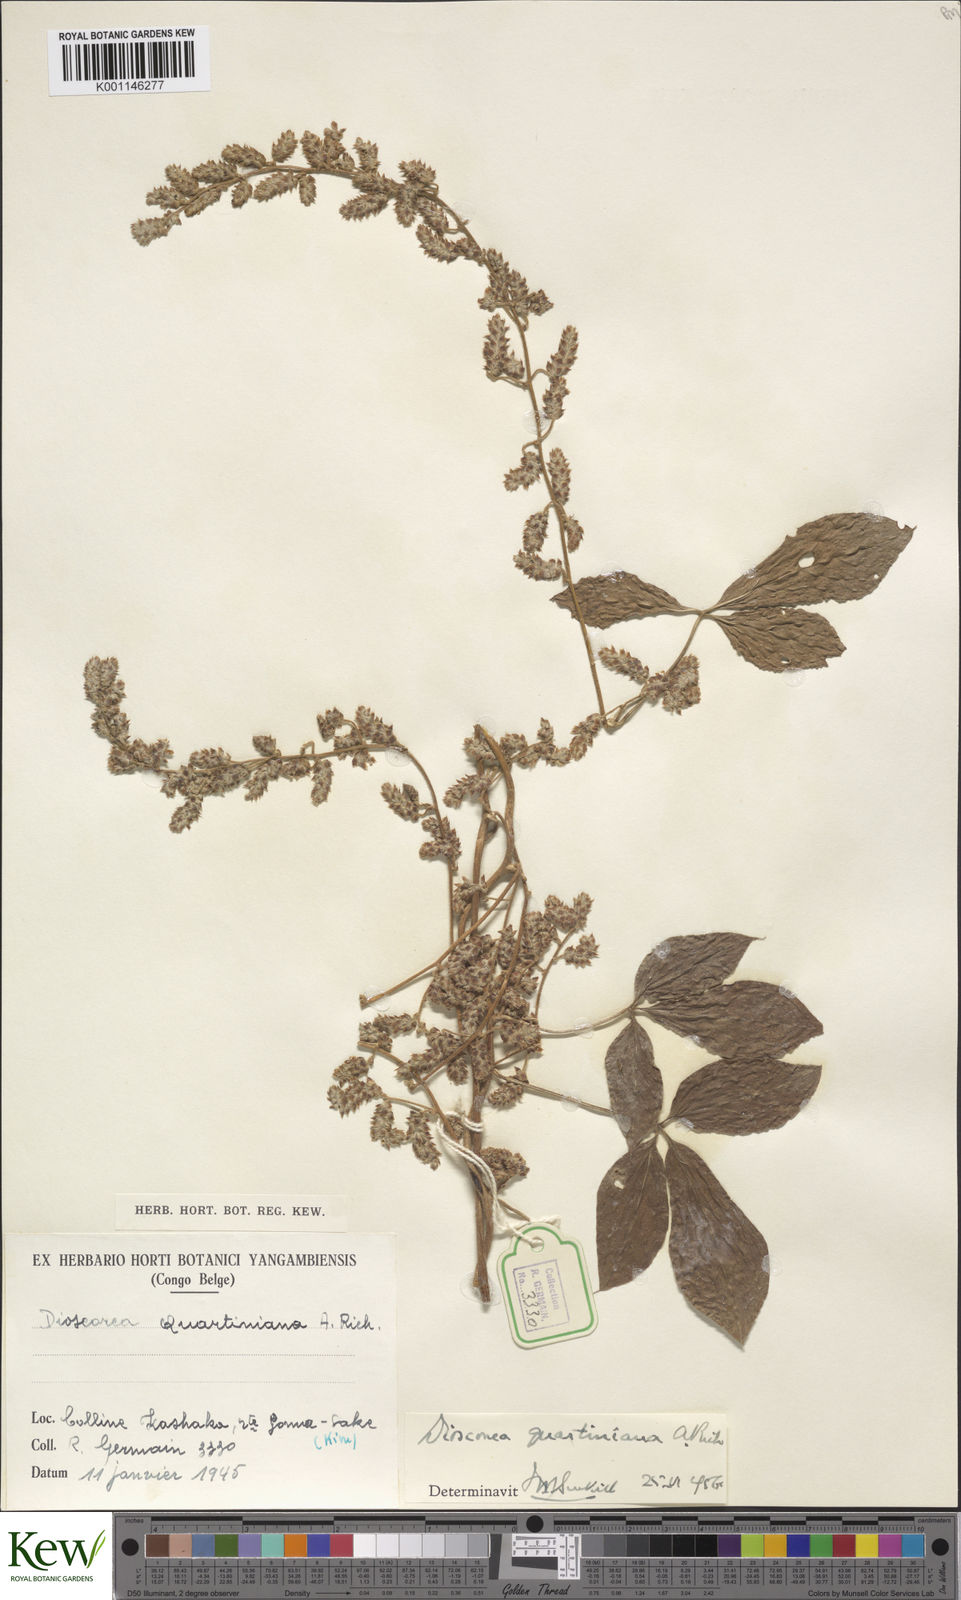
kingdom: Plantae
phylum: Tracheophyta
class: Liliopsida
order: Dioscoreales
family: Dioscoreaceae
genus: Dioscorea
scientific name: Dioscorea quartiniana
